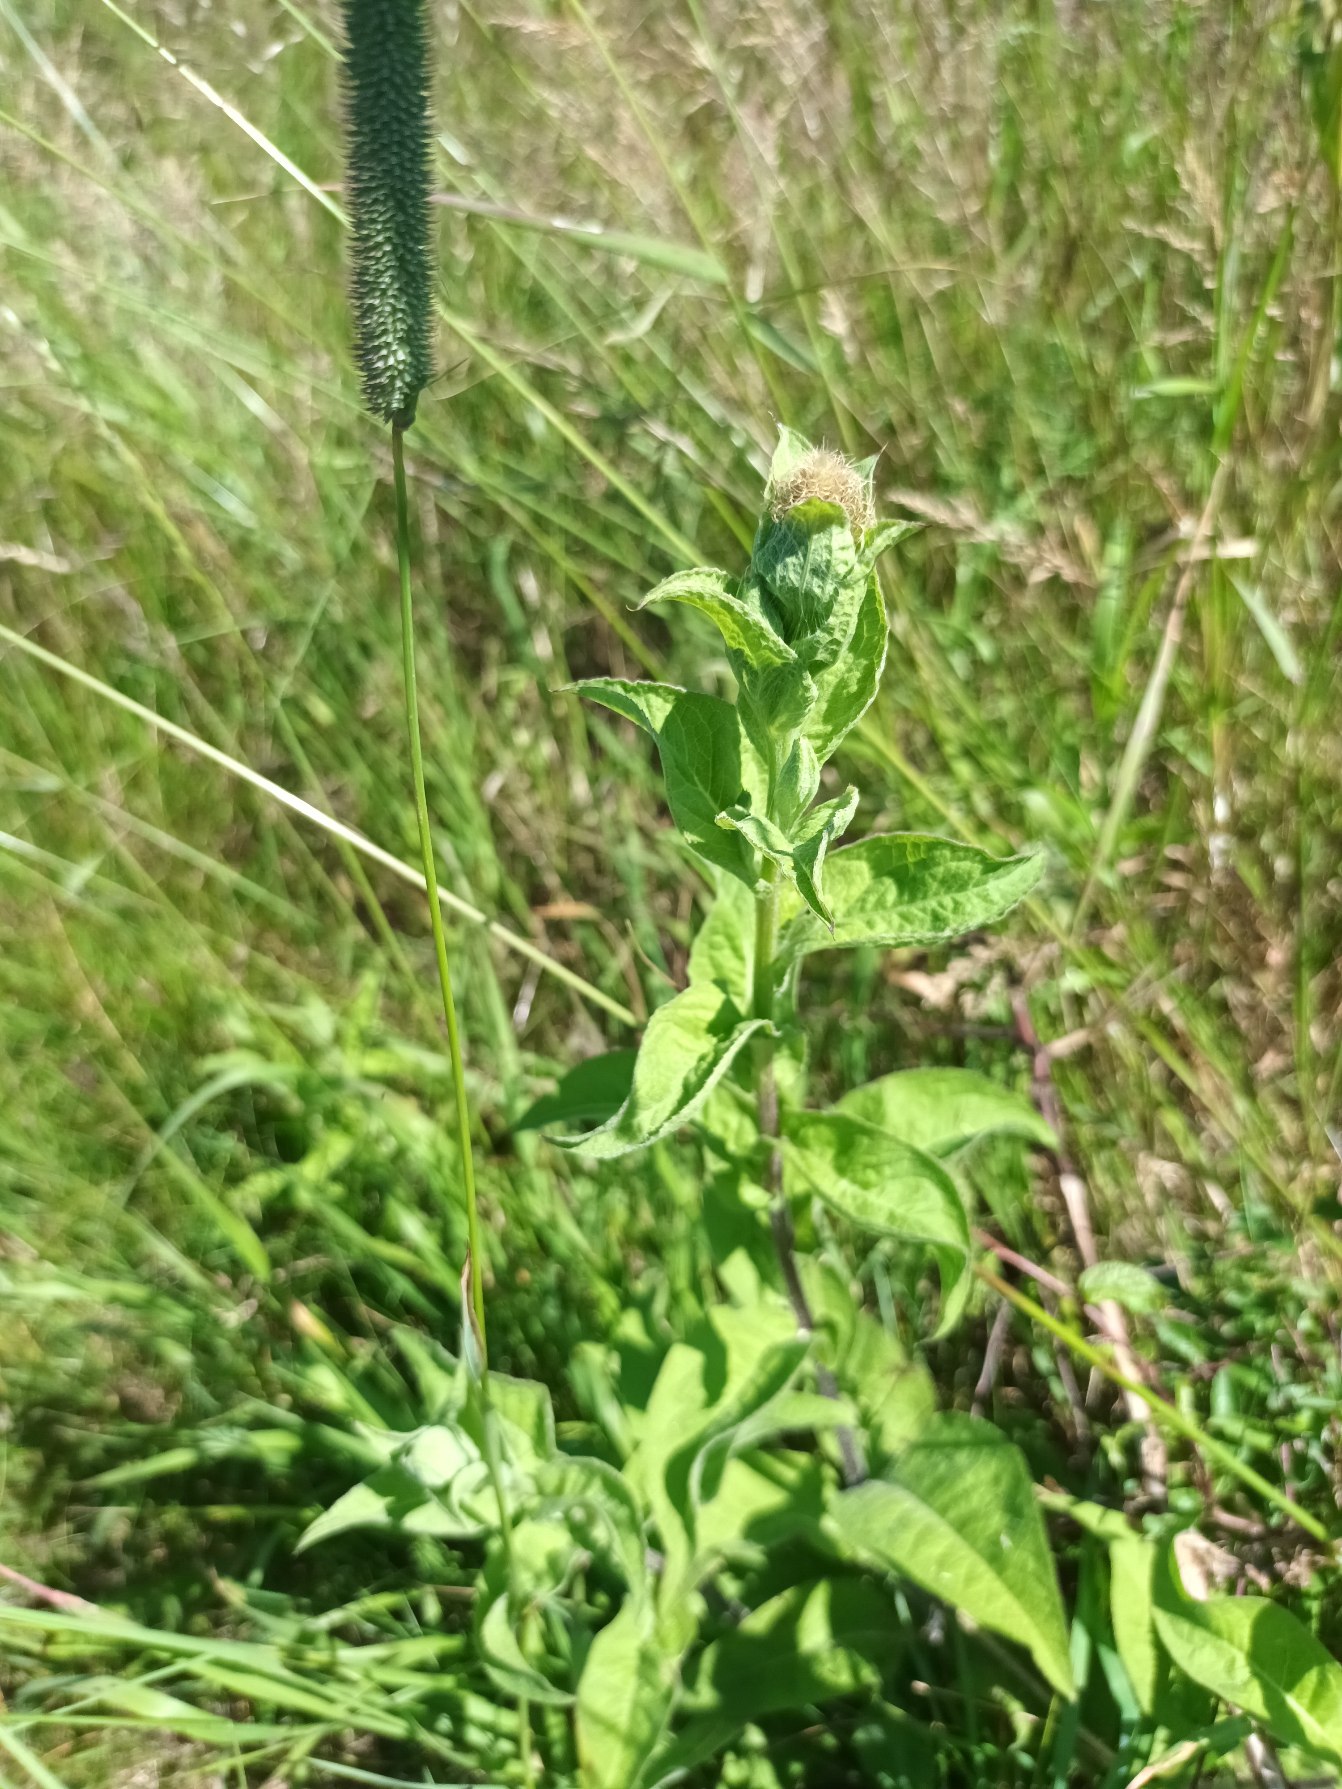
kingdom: Plantae
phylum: Tracheophyta
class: Magnoliopsida
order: Asterales
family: Asteraceae
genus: Centaurea
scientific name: Centaurea pseudophrygia
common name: Fjer-knopurt
